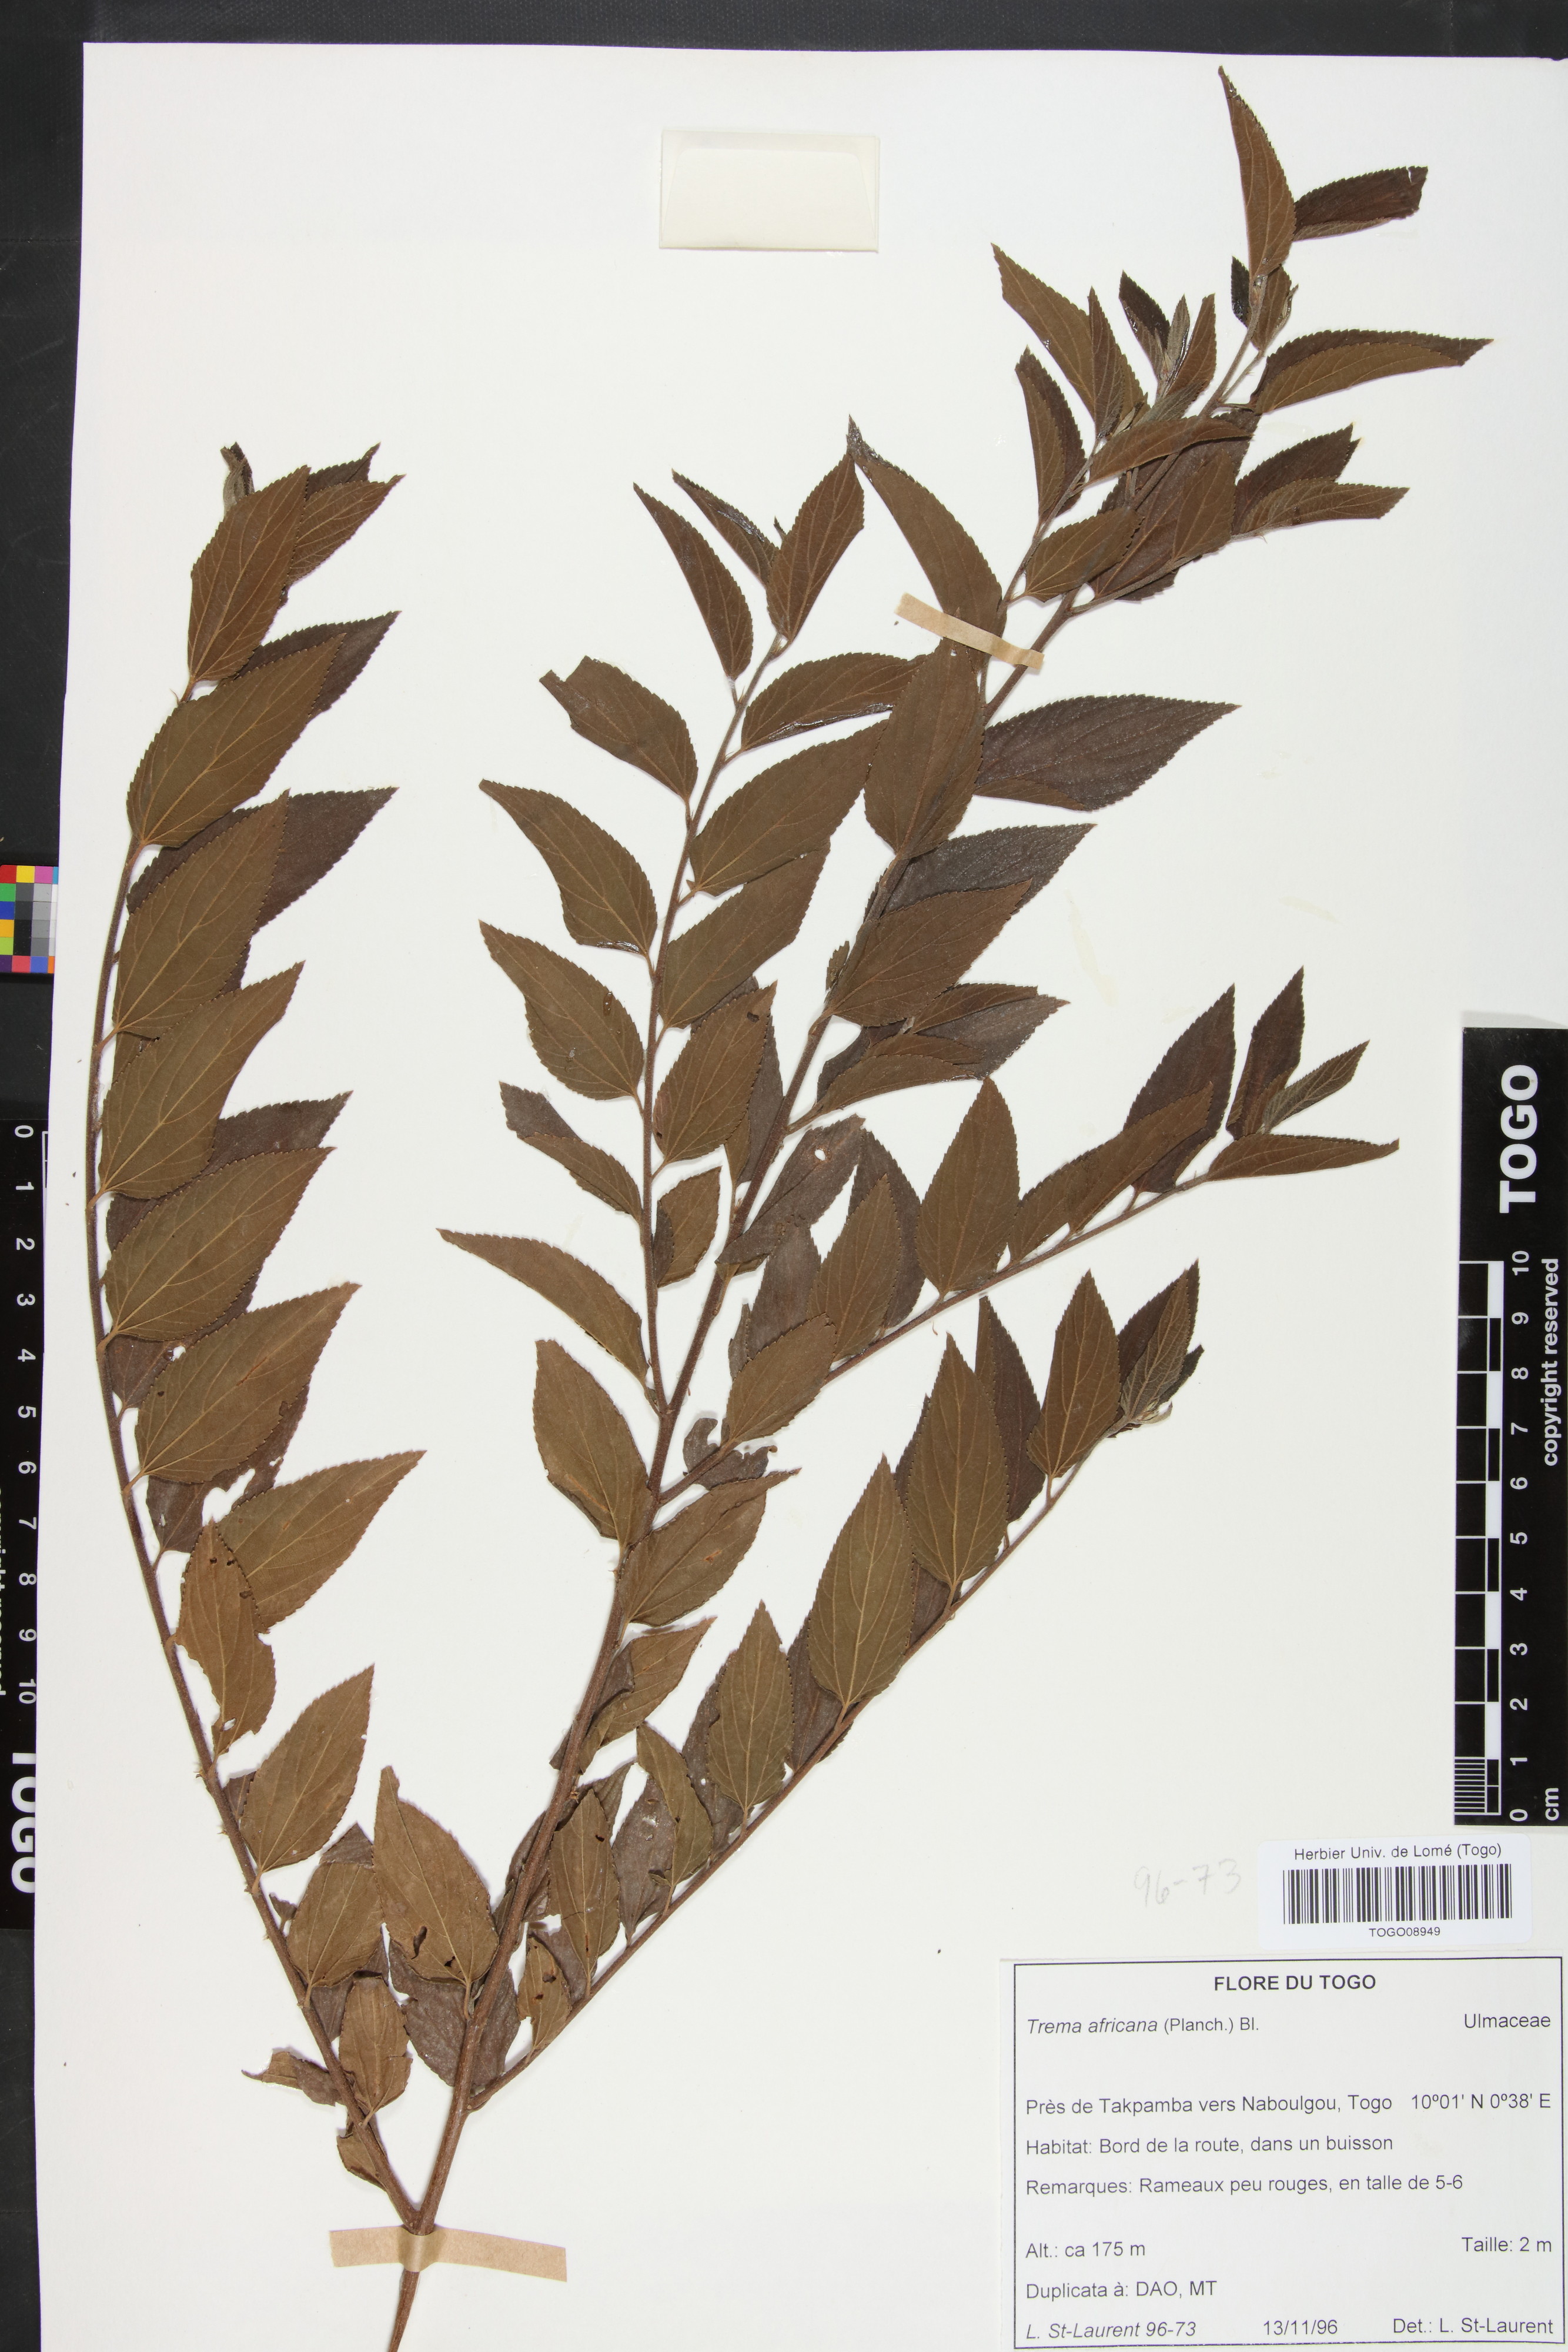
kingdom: Plantae
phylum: Tracheophyta
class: Magnoliopsida
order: Rosales
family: Cannabaceae
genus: Trema
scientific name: Trema orientale
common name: Indian charcoal tree
